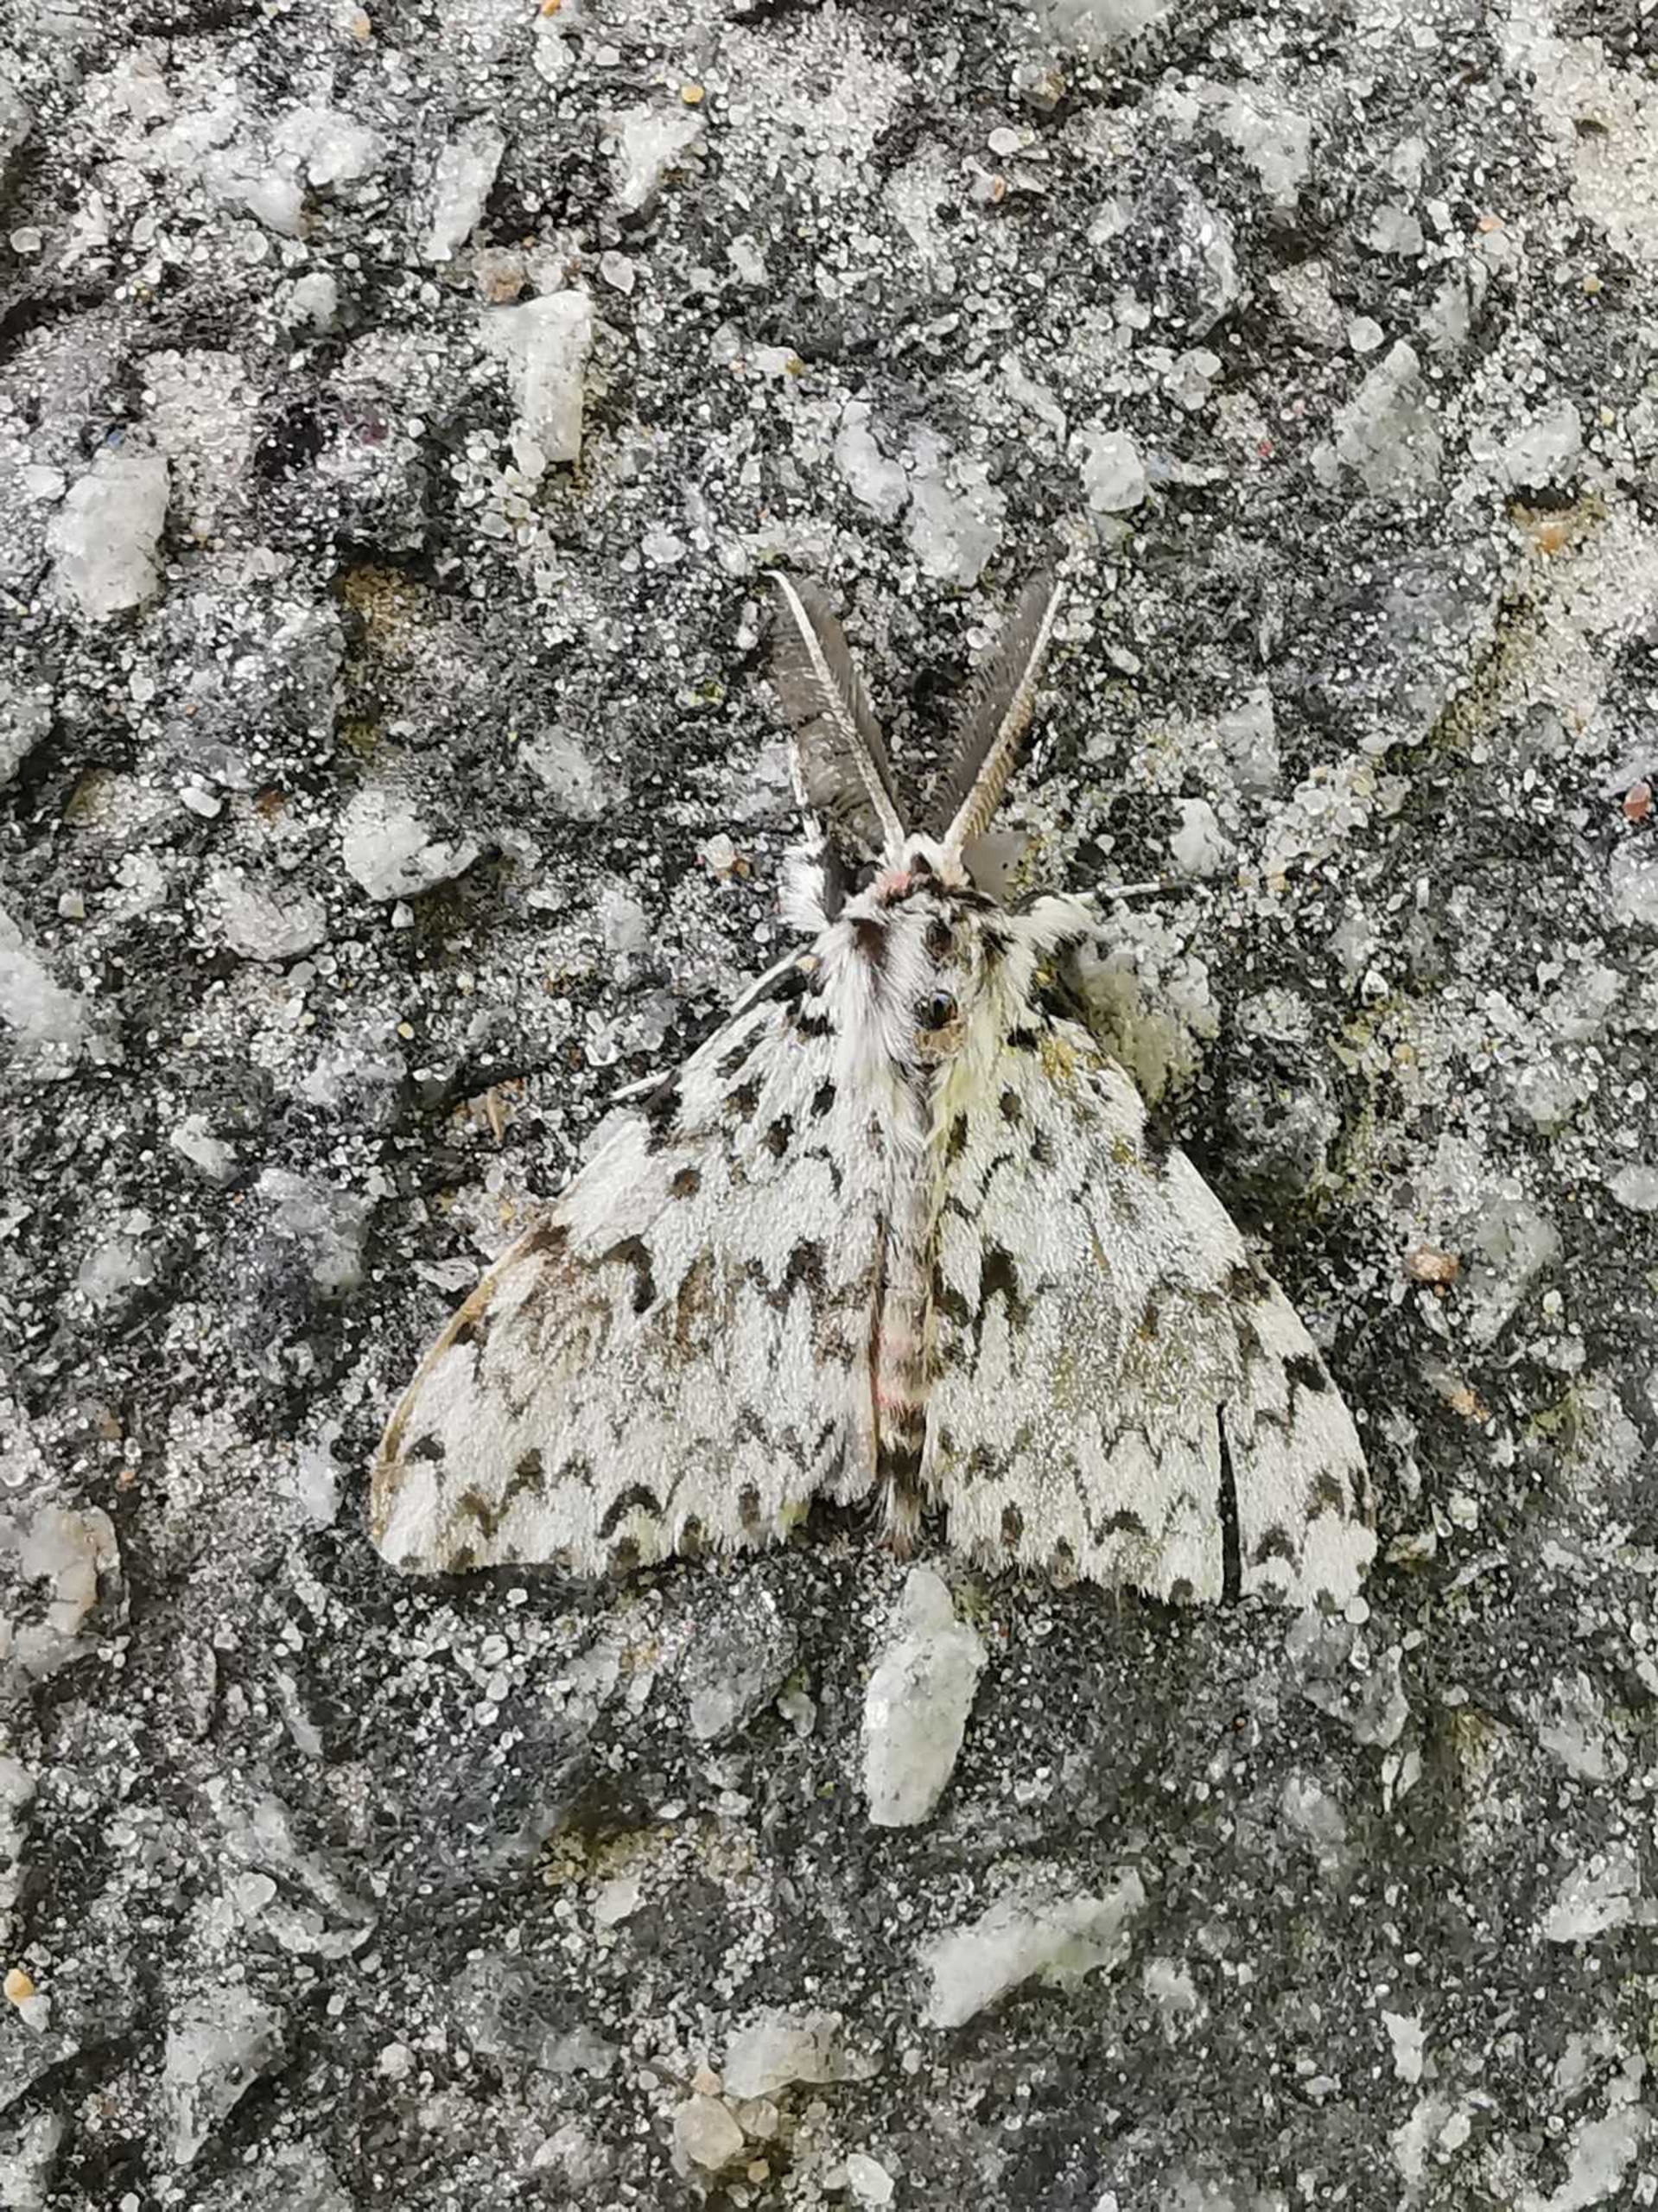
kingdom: Animalia
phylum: Arthropoda
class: Insecta
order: Lepidoptera
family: Erebidae
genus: Lymantria
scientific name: Lymantria monacha
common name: Nonne
